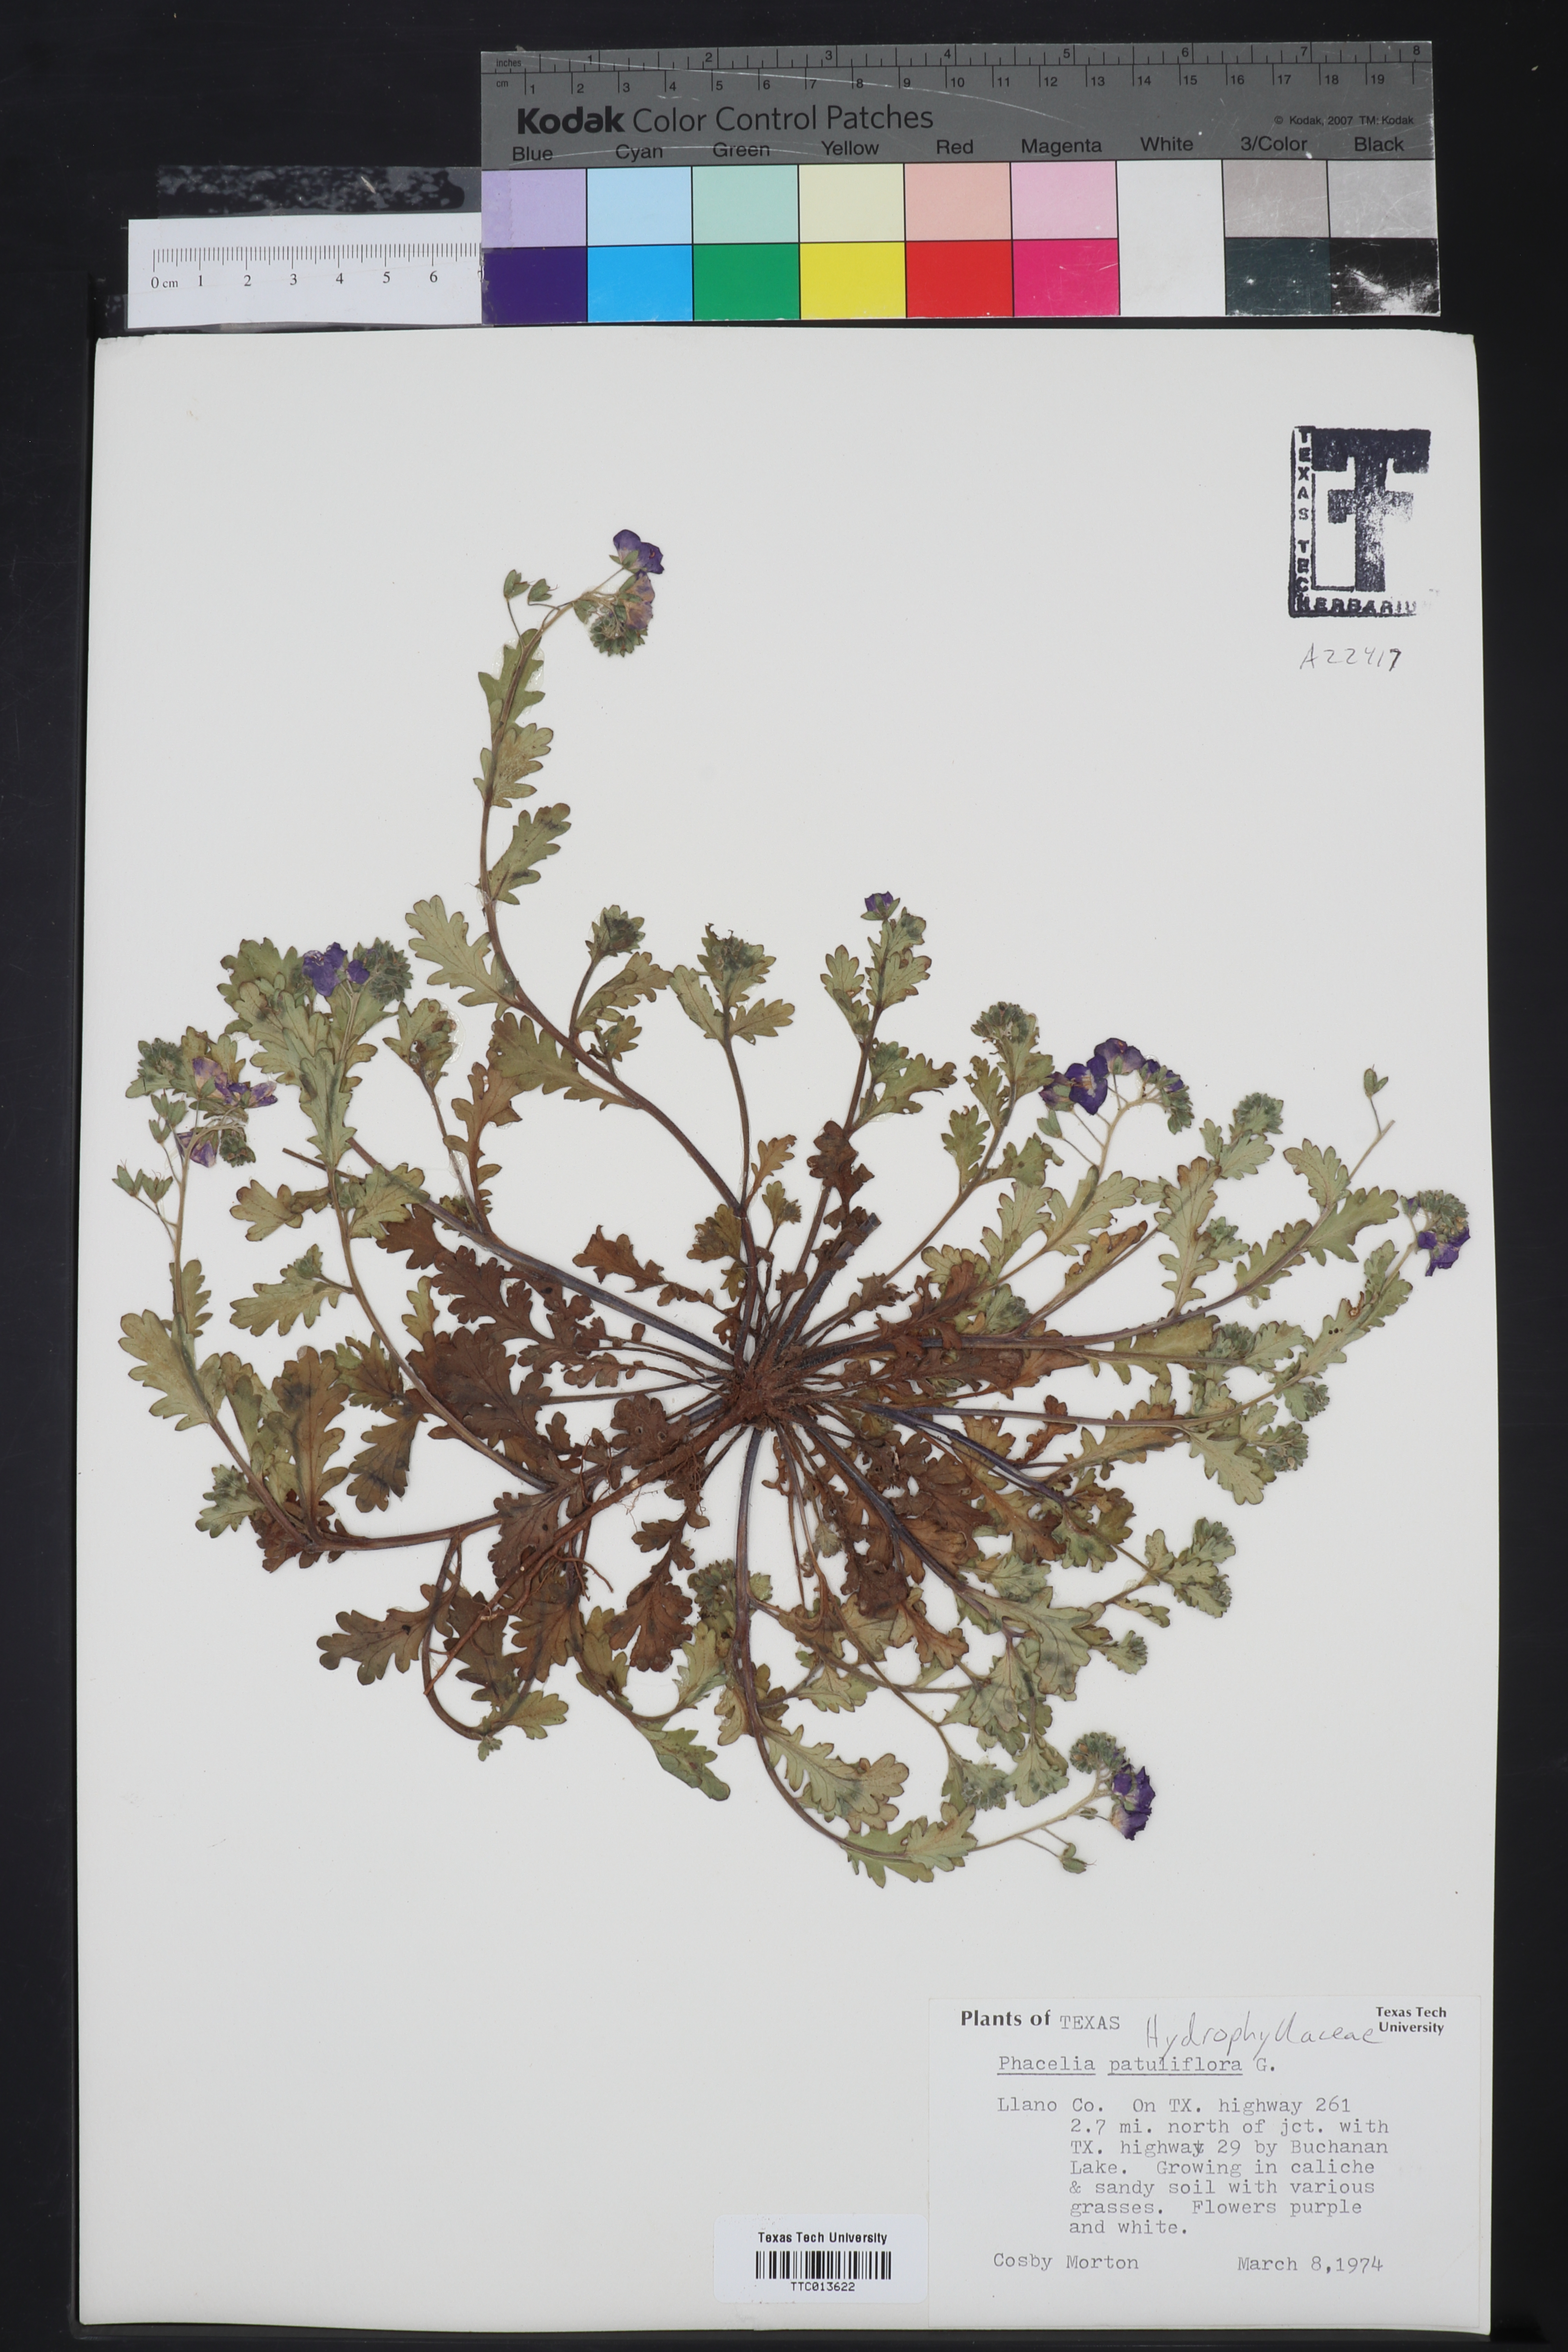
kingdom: Plantae
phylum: Tracheophyta
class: Magnoliopsida
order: Boraginales
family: Hydrophyllaceae
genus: Phacelia
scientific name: Phacelia patuliflora
